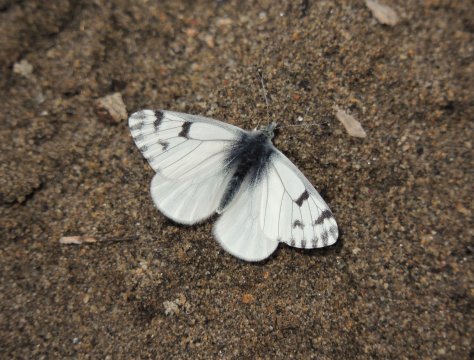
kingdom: Animalia
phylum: Arthropoda
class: Insecta
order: Lepidoptera
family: Pieridae
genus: Pontia
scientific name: Pontia sisymbrii
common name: Spring White
